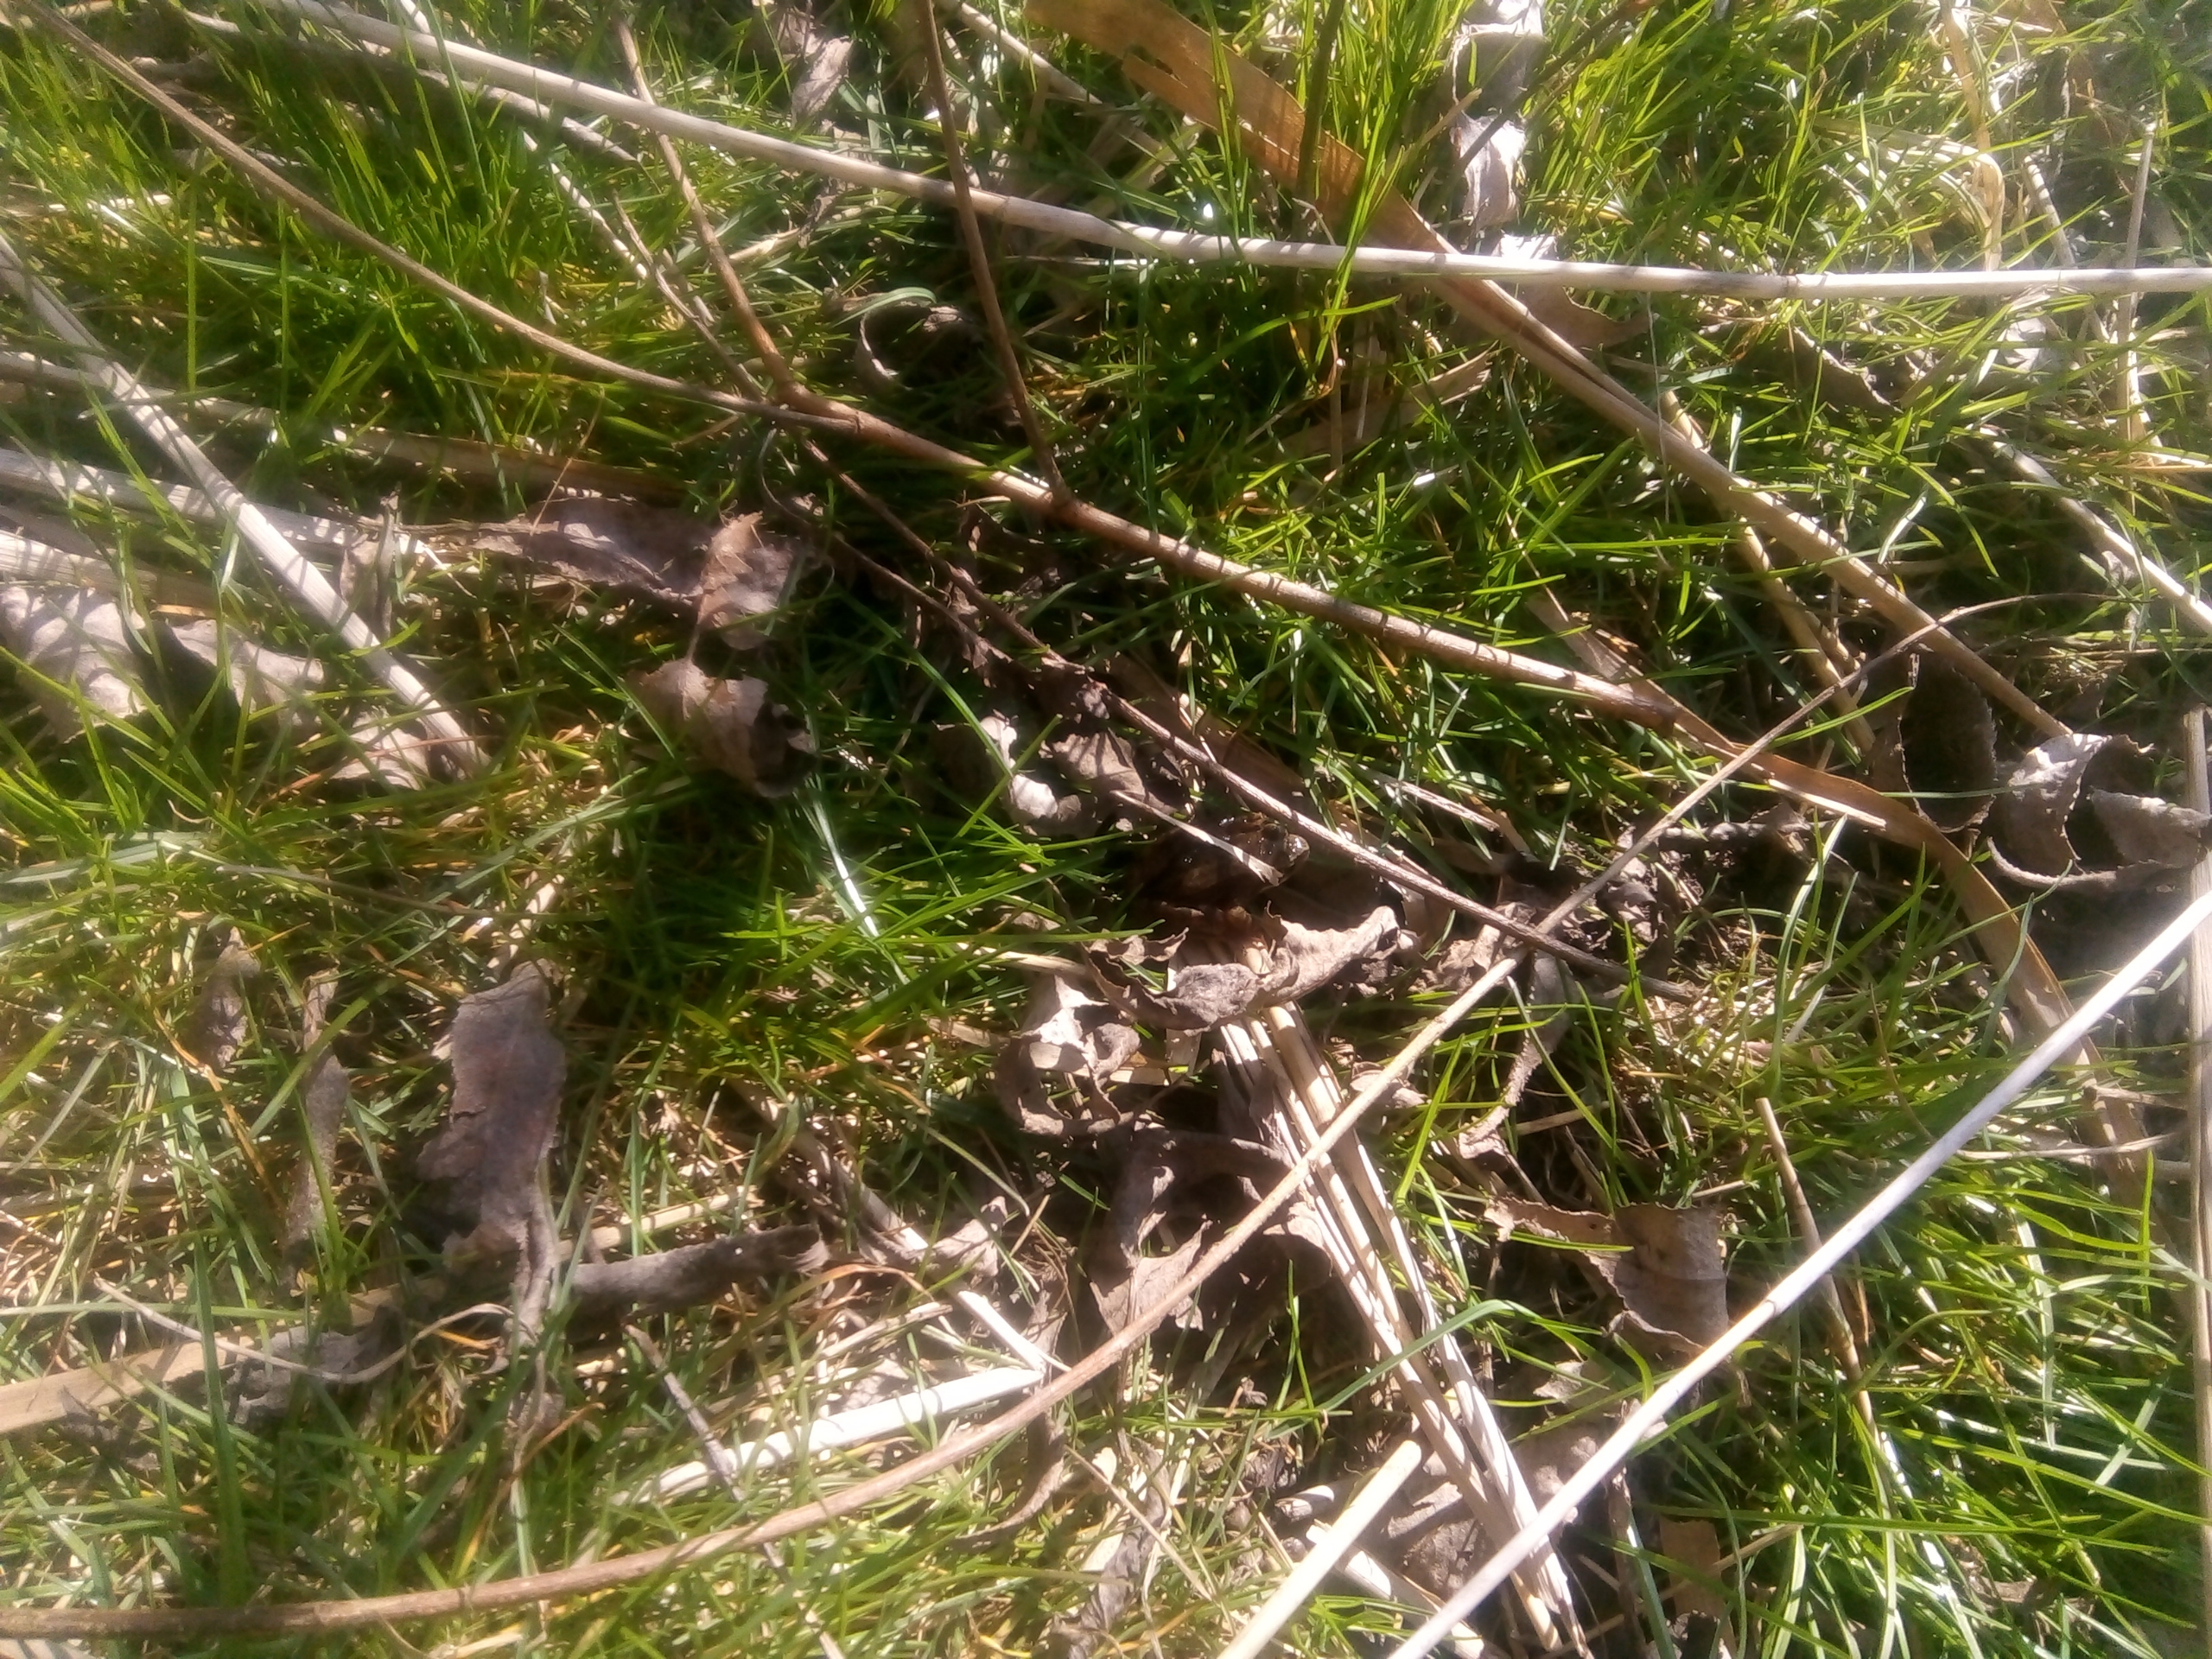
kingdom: Animalia
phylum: Chordata
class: Amphibia
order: Anura
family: Ranidae
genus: Rana
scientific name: Rana temporaria
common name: Butsnudet frø
